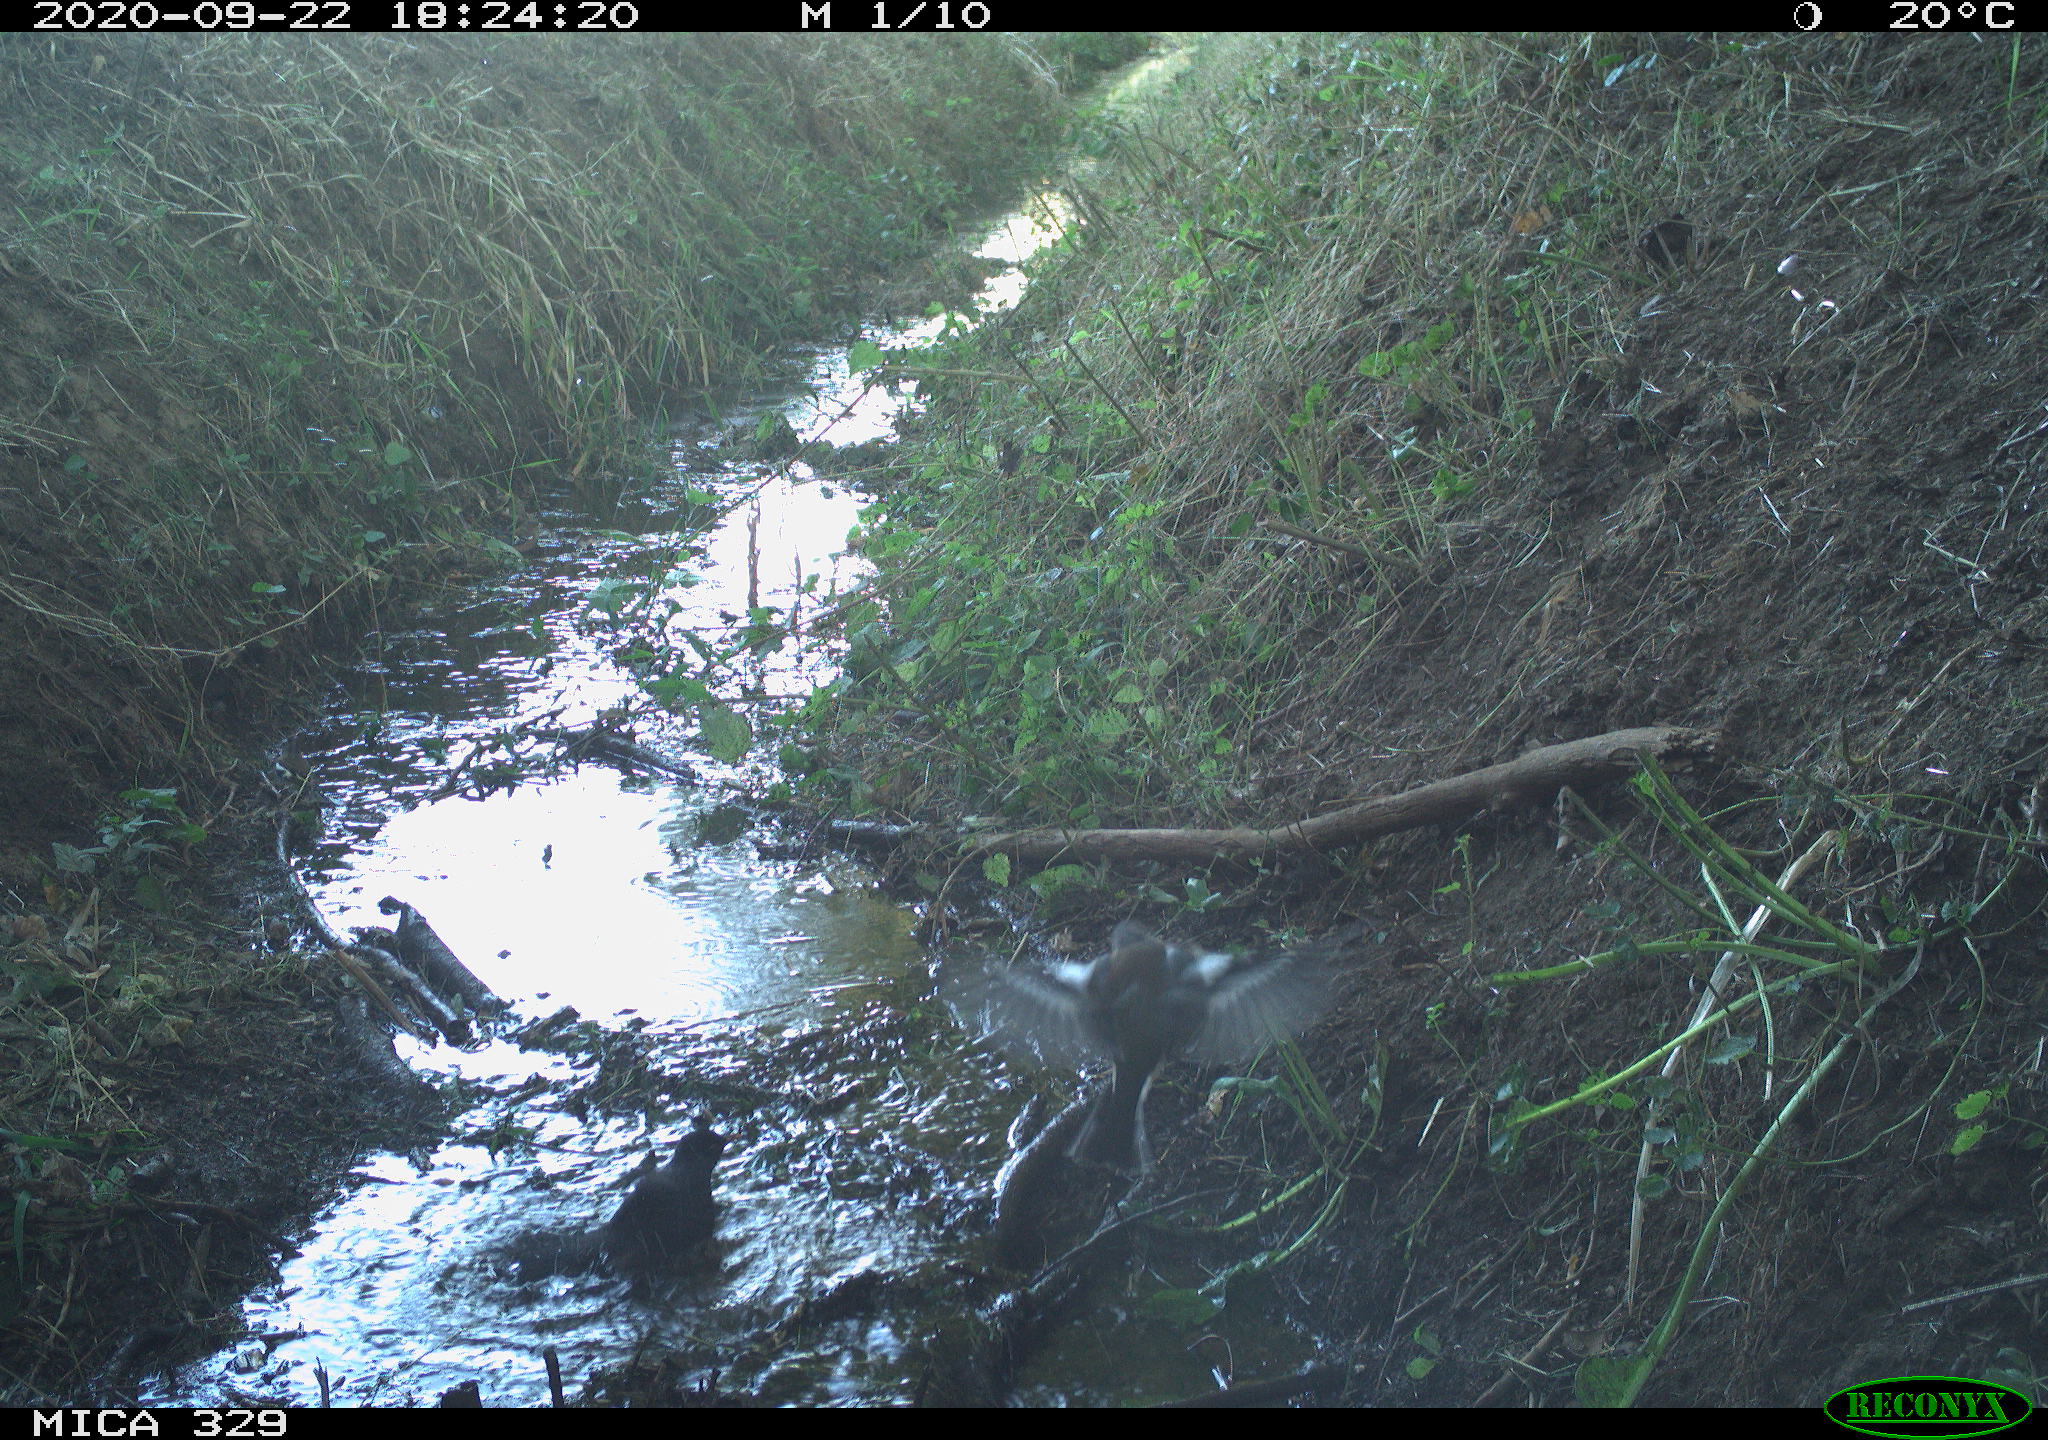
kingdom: Animalia
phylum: Chordata
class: Aves
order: Passeriformes
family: Turdidae
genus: Turdus
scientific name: Turdus merula
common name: Common blackbird
